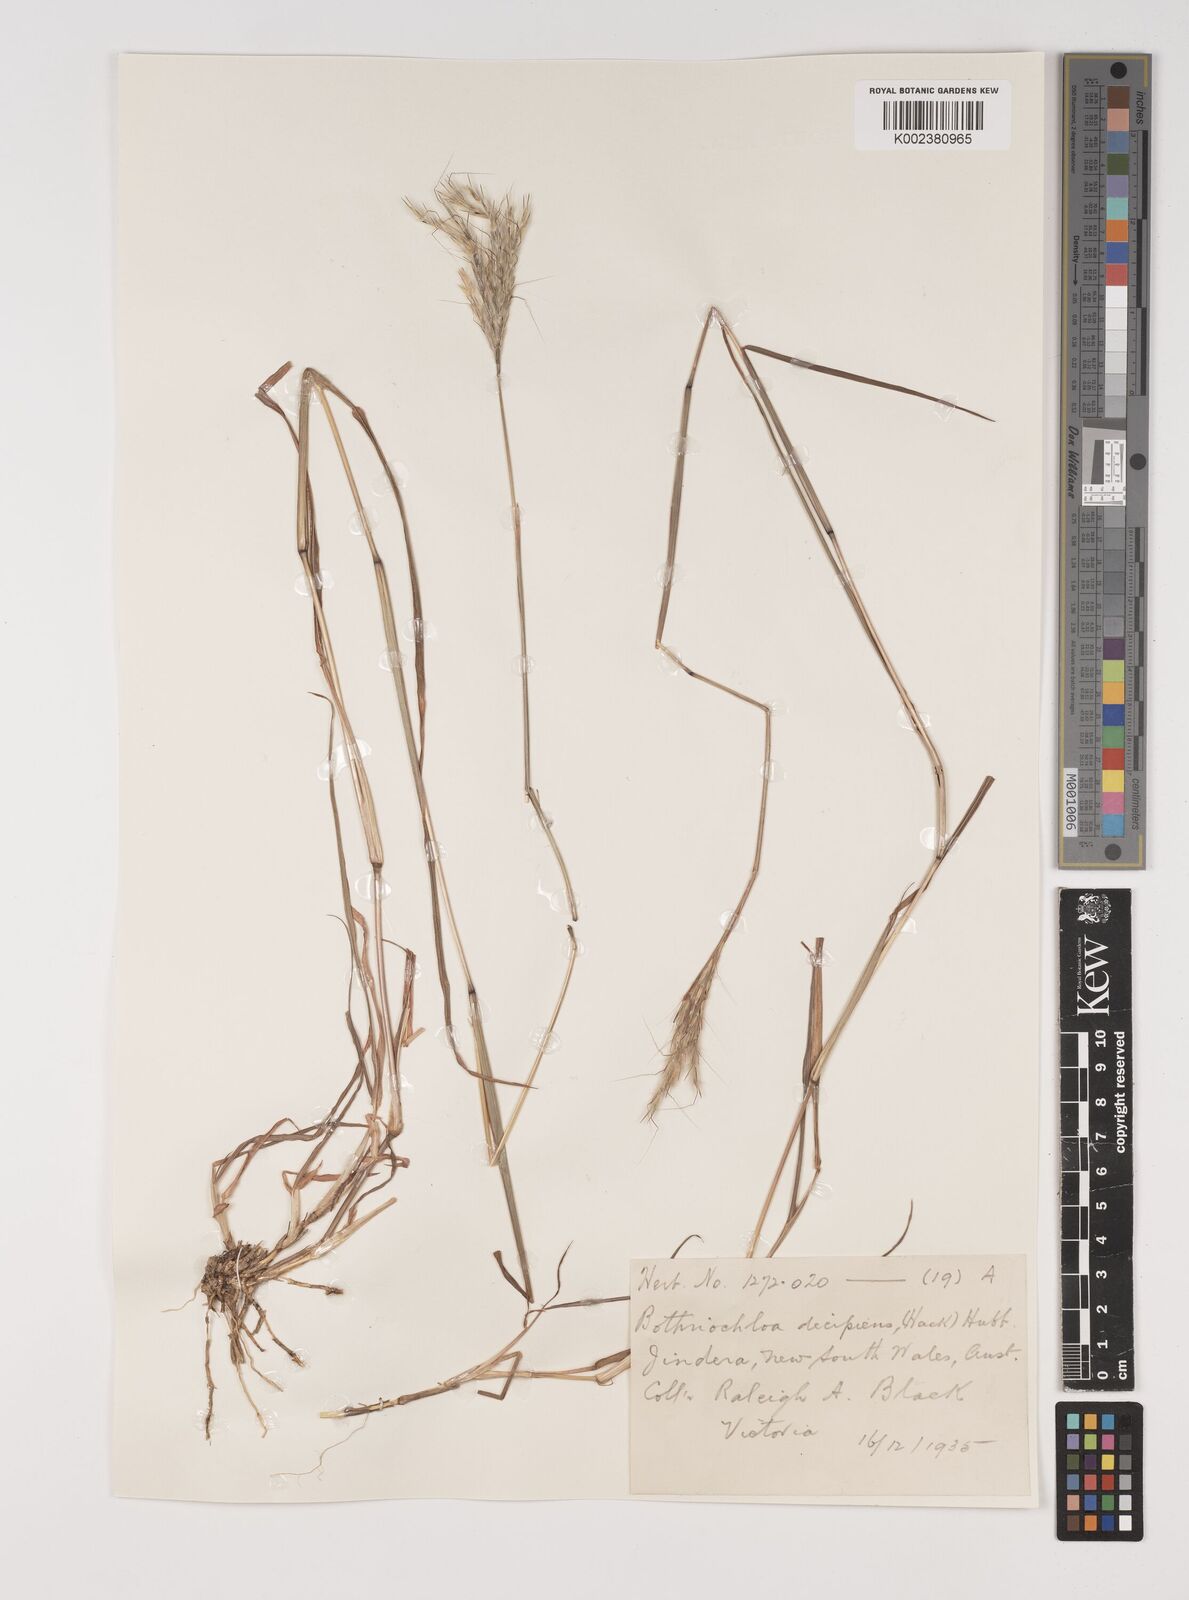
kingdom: Plantae
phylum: Tracheophyta
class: Liliopsida
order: Poales
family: Poaceae
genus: Bothriochloa
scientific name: Bothriochloa decipiens
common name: Pitted-bluegrass
